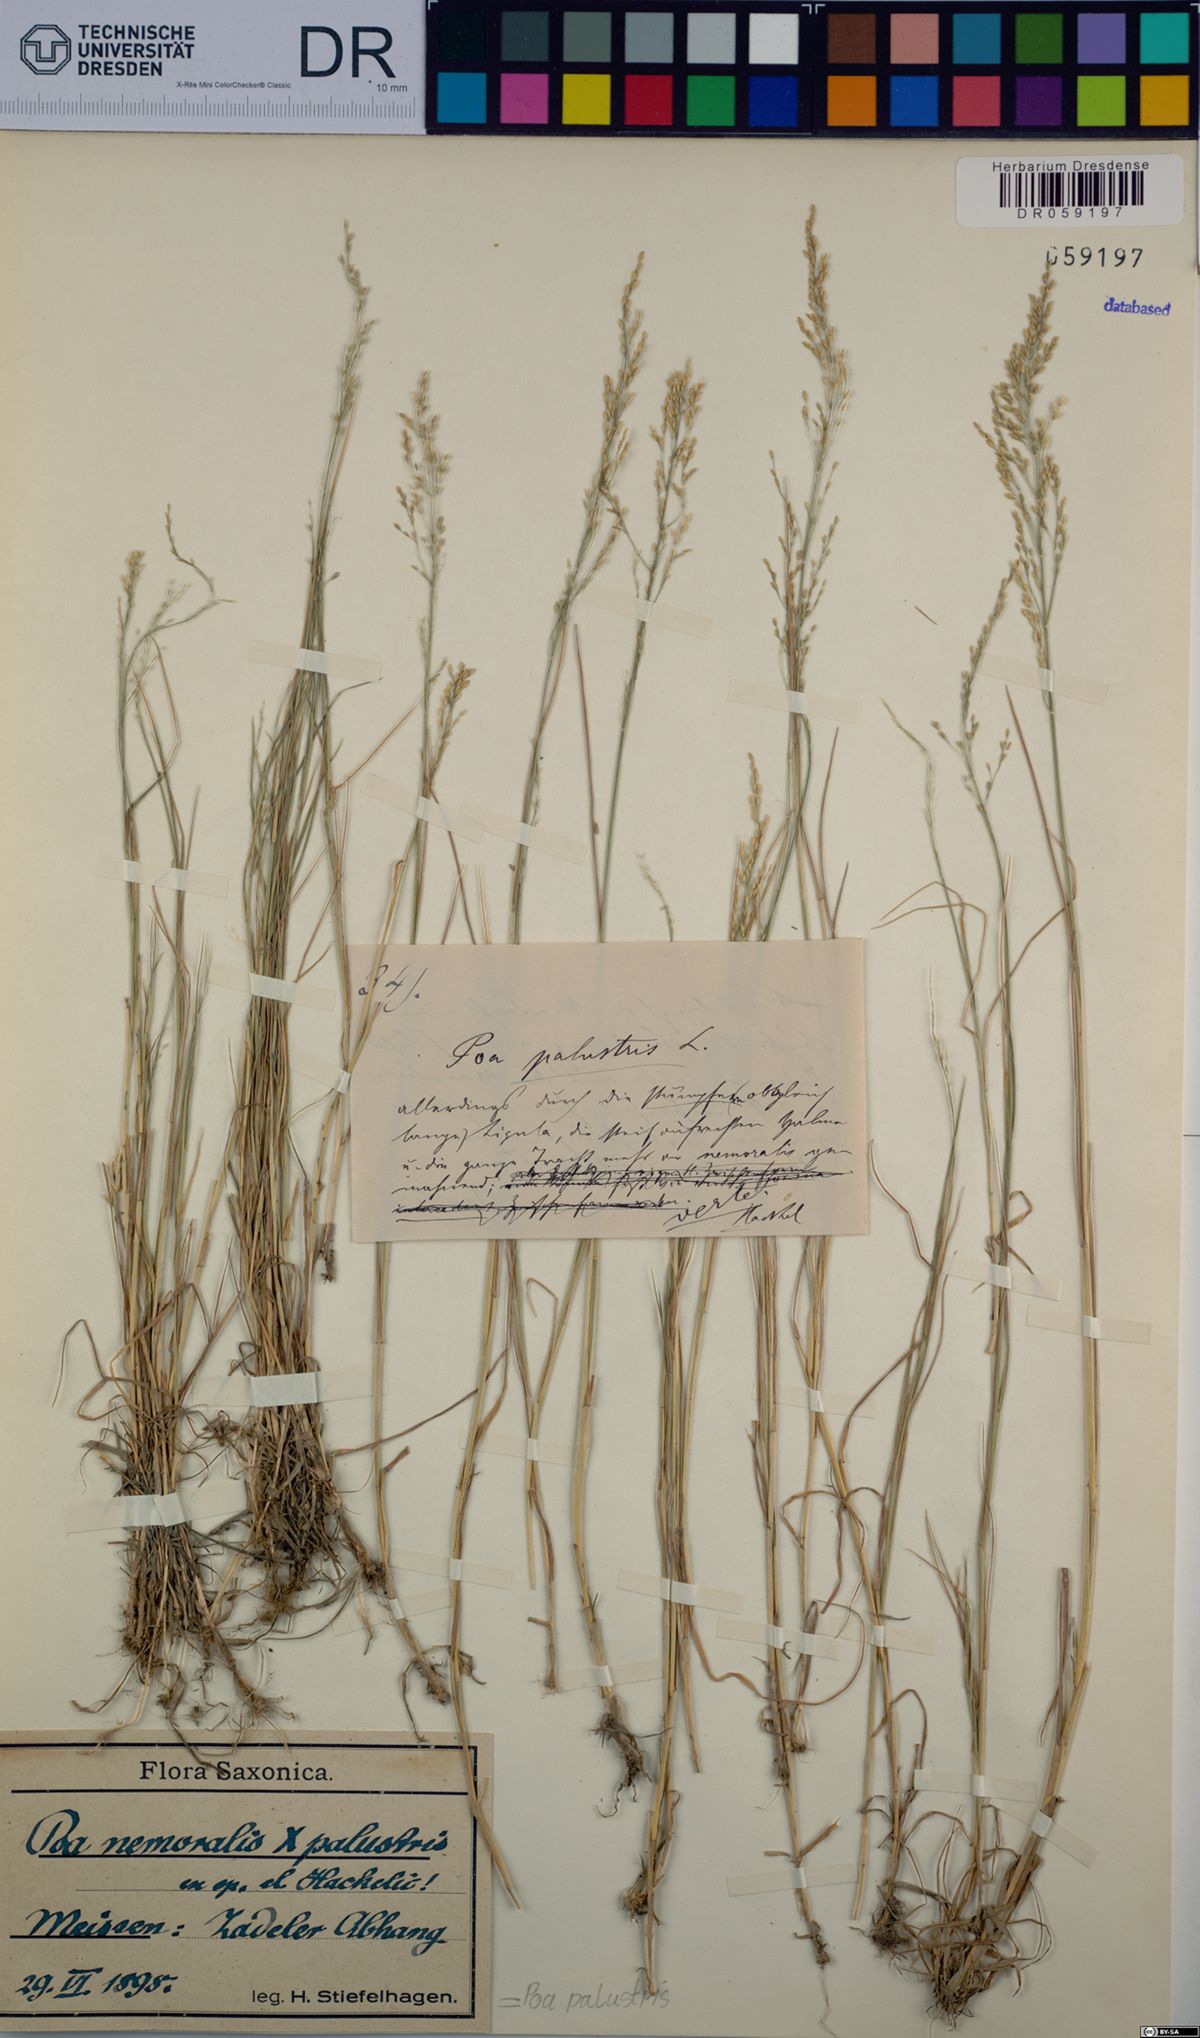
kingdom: Plantae
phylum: Tracheophyta
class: Liliopsida
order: Poales
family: Poaceae
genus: Poa
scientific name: Poa palustris
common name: Swamp meadow-grass
